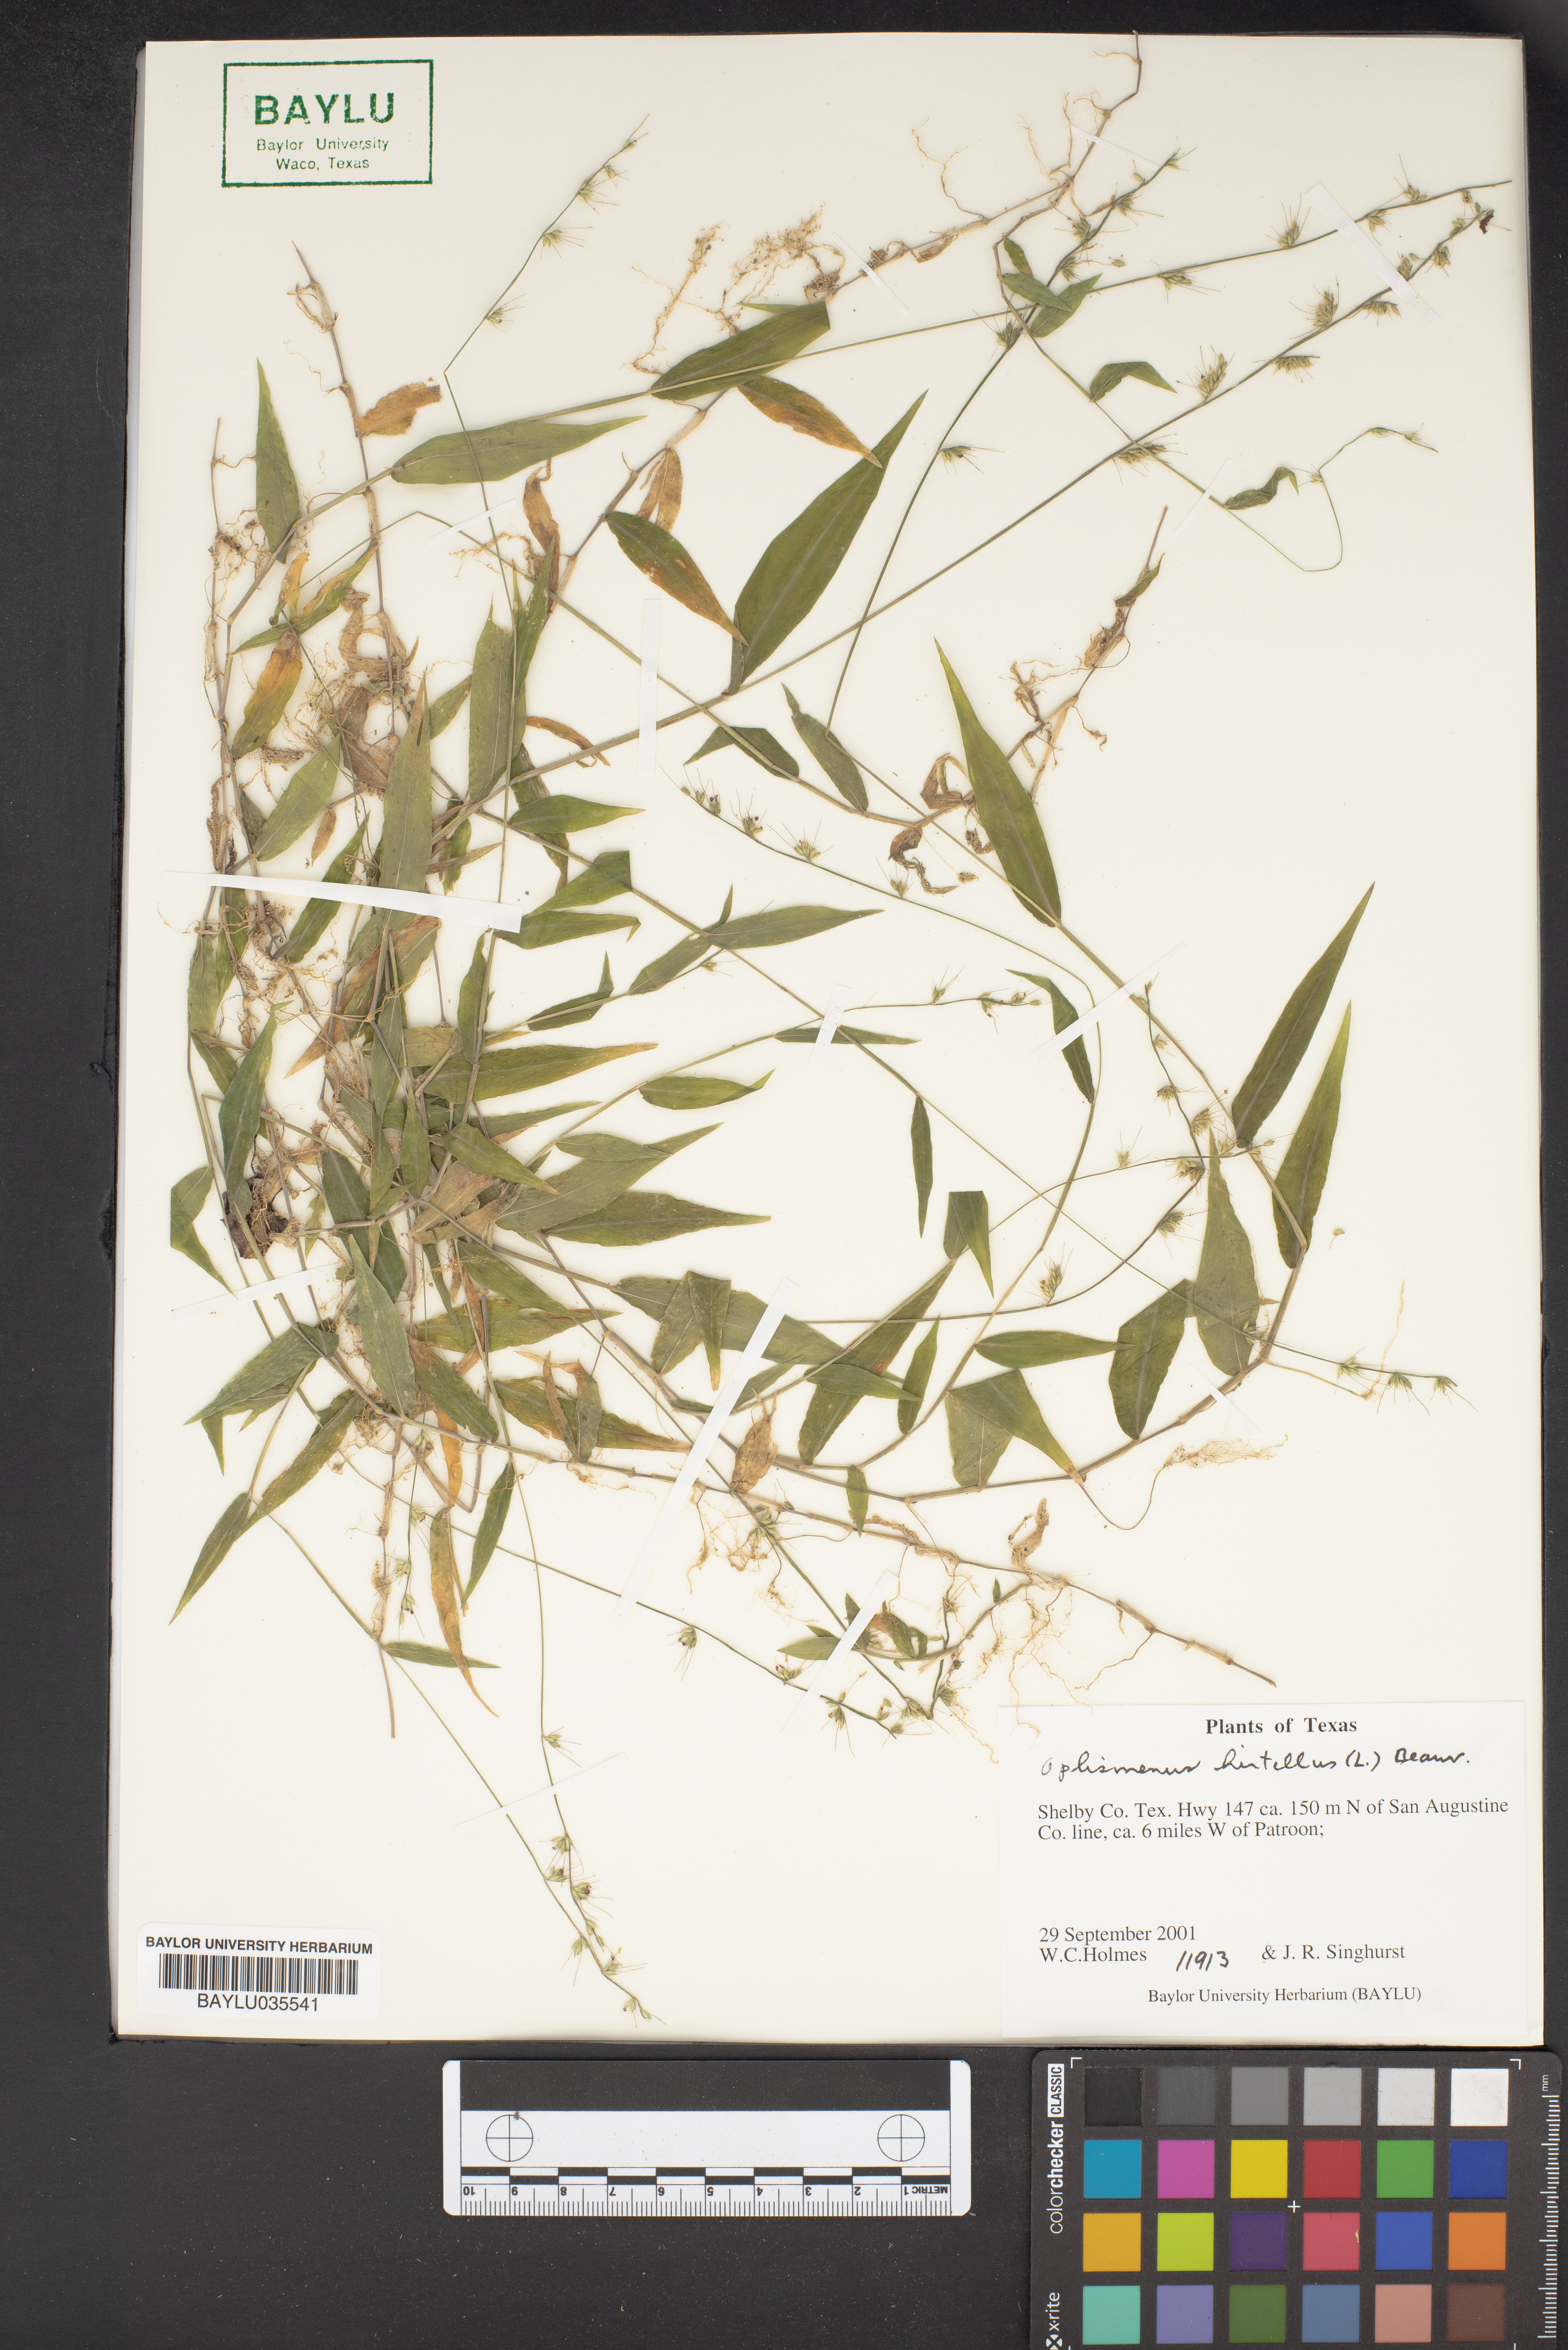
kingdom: Plantae
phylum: Tracheophyta
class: Liliopsida
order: Poales
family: Poaceae
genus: Oplismenus
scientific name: Oplismenus
